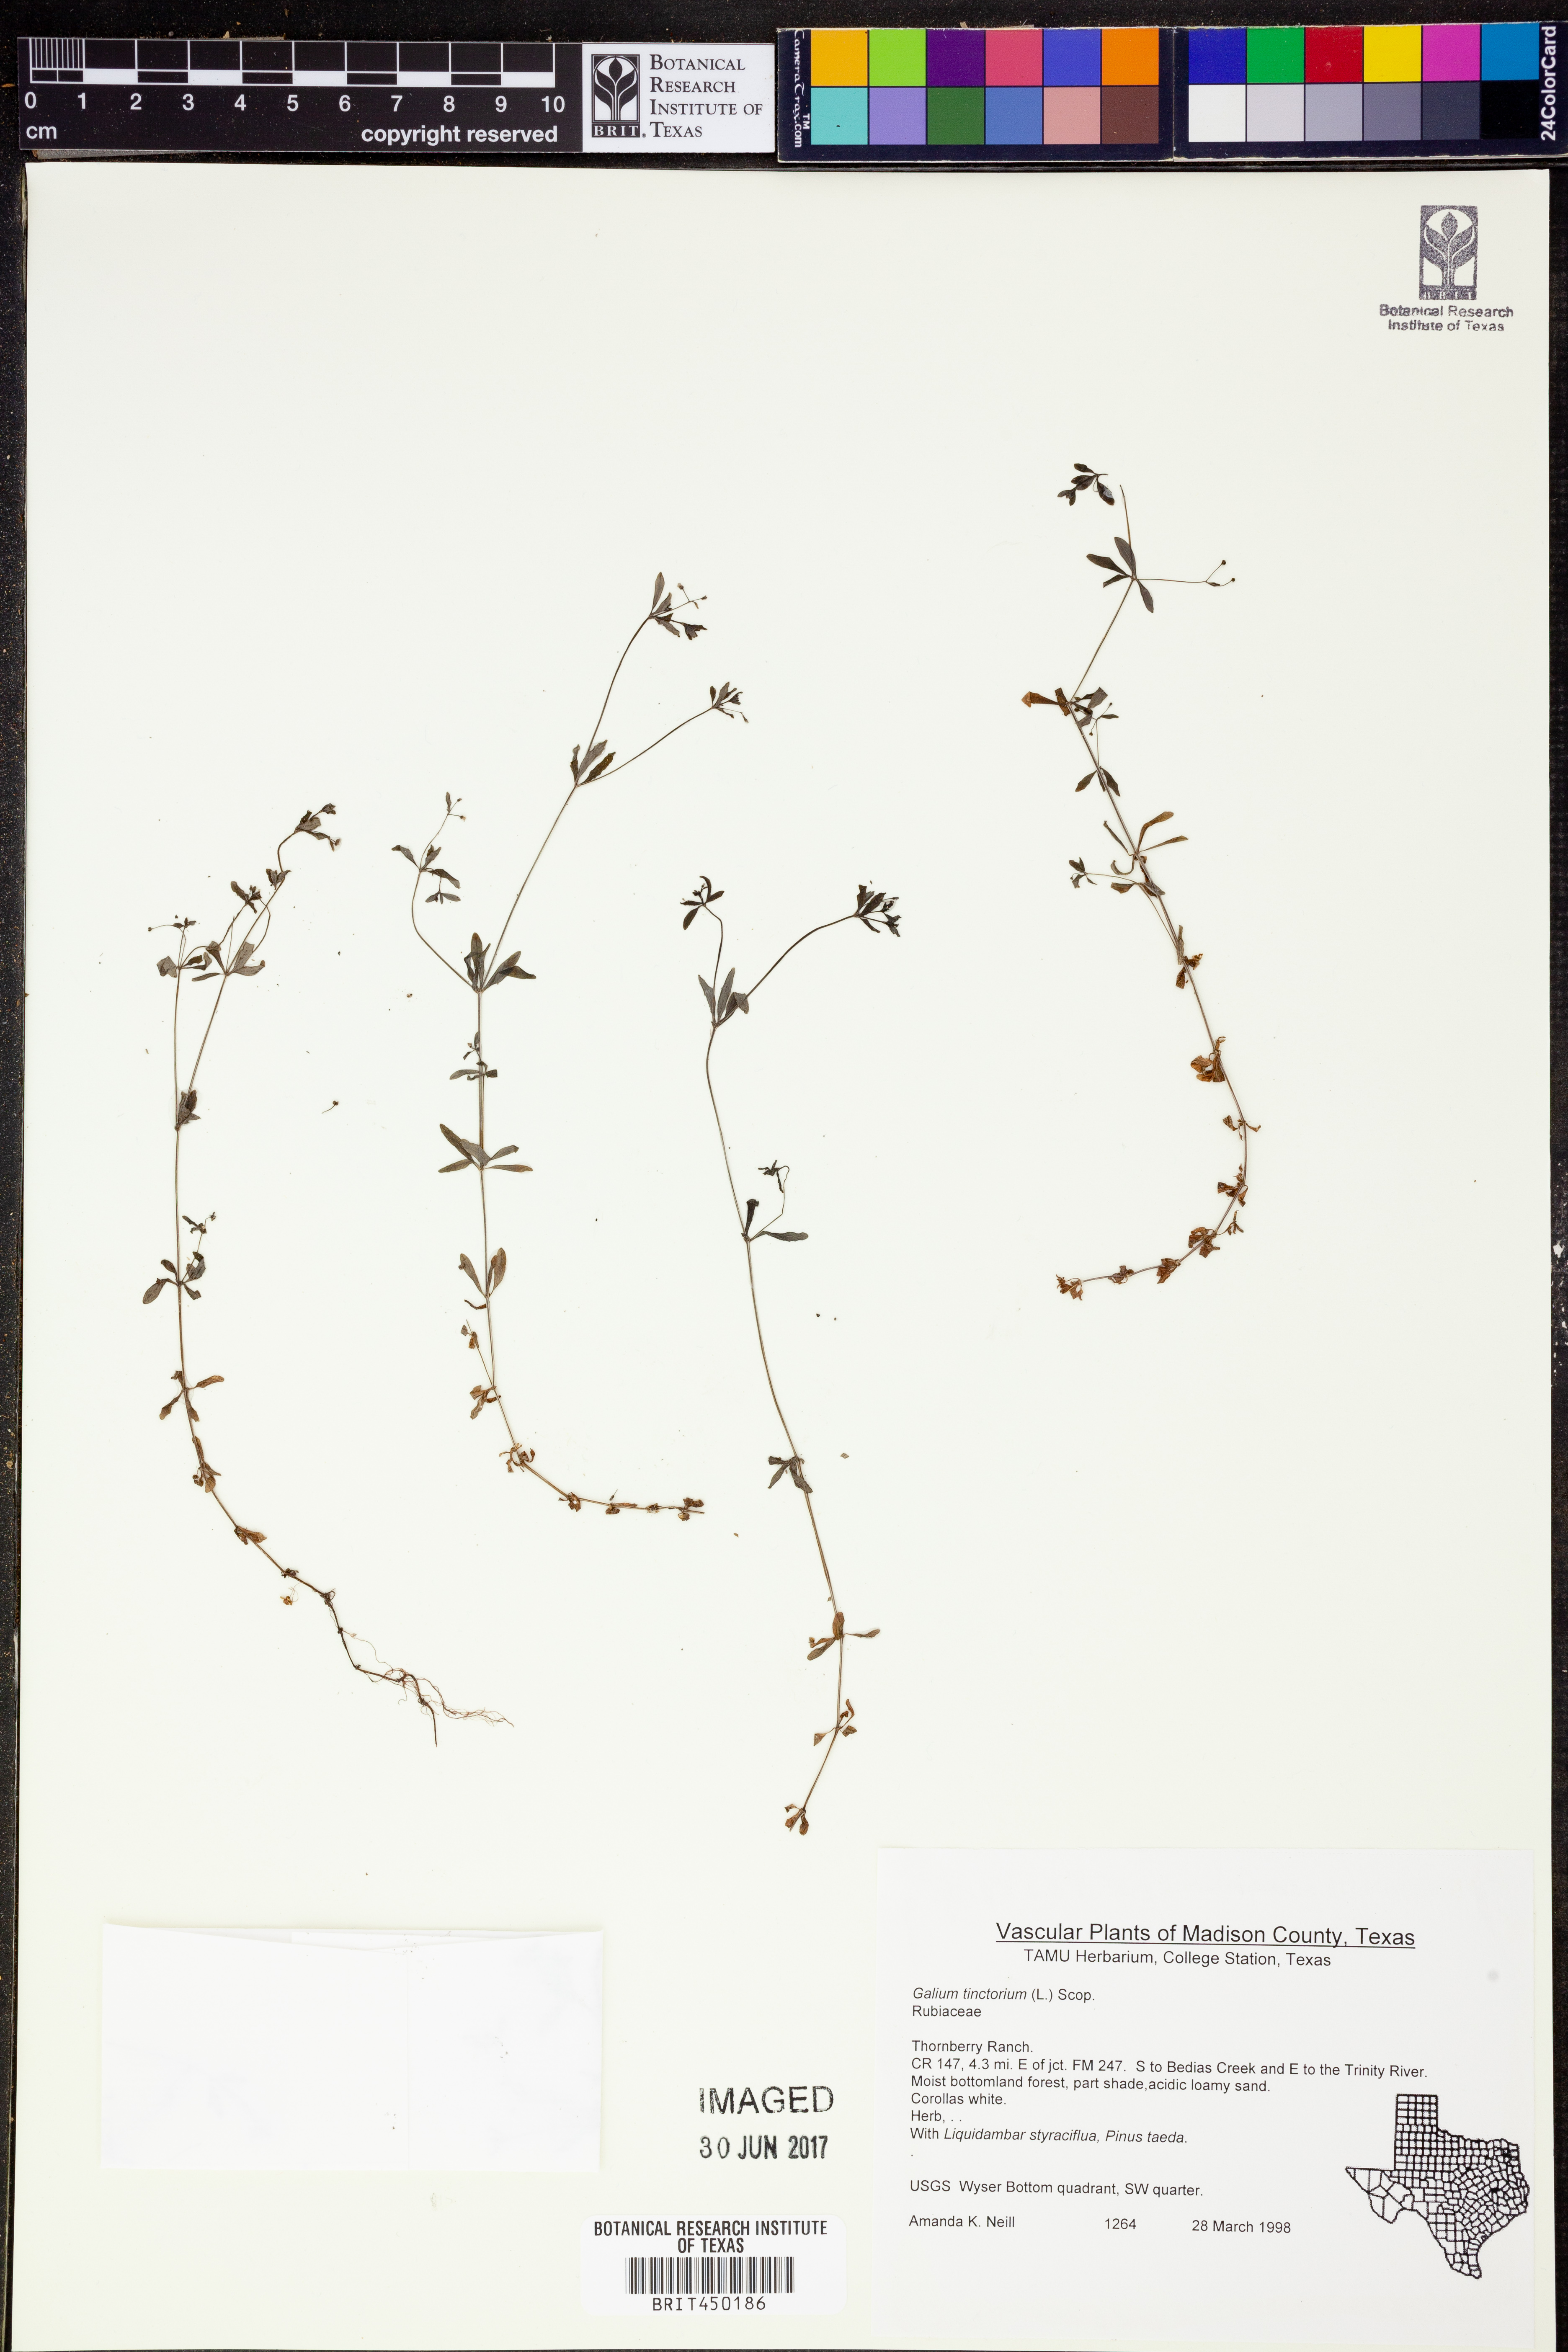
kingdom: Plantae
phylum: Tracheophyta
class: Magnoliopsida
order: Gentianales
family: Rubiaceae
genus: Asperula
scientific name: Asperula tinctoria
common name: Dyer's woodruff
